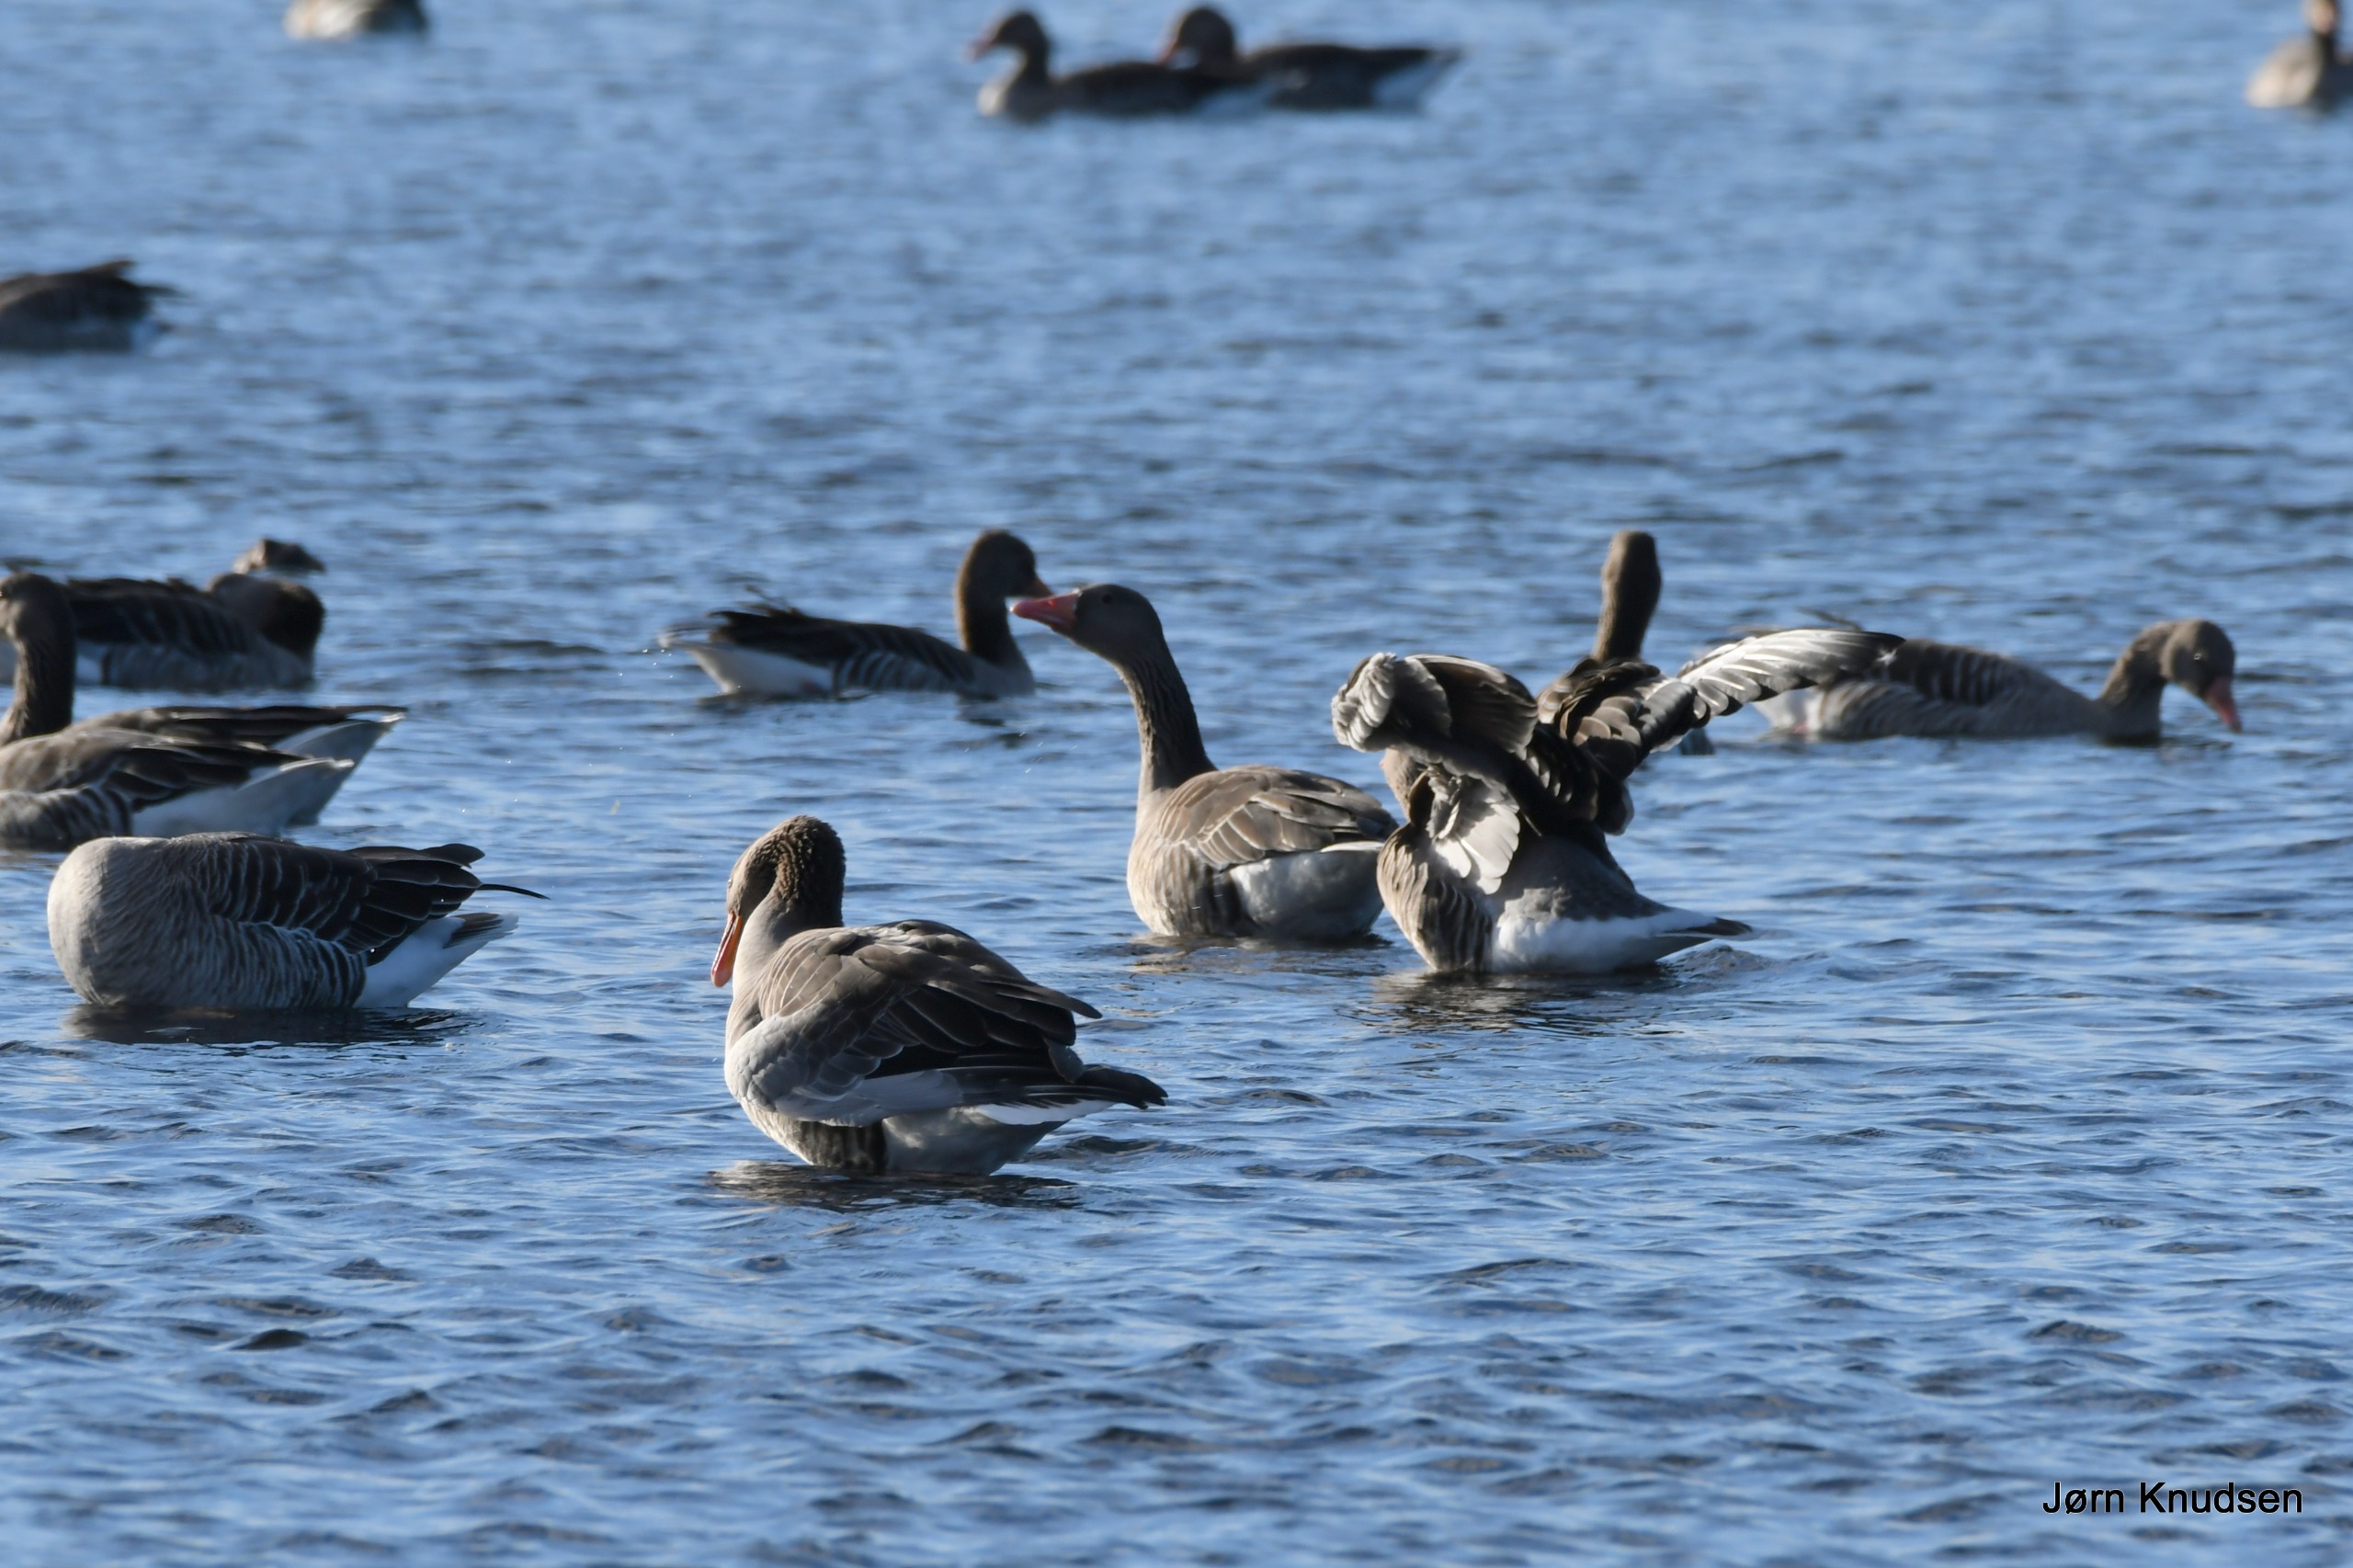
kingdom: Animalia
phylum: Chordata
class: Aves
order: Anseriformes
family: Anatidae
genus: Anser
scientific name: Anser anser
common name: Grågås
